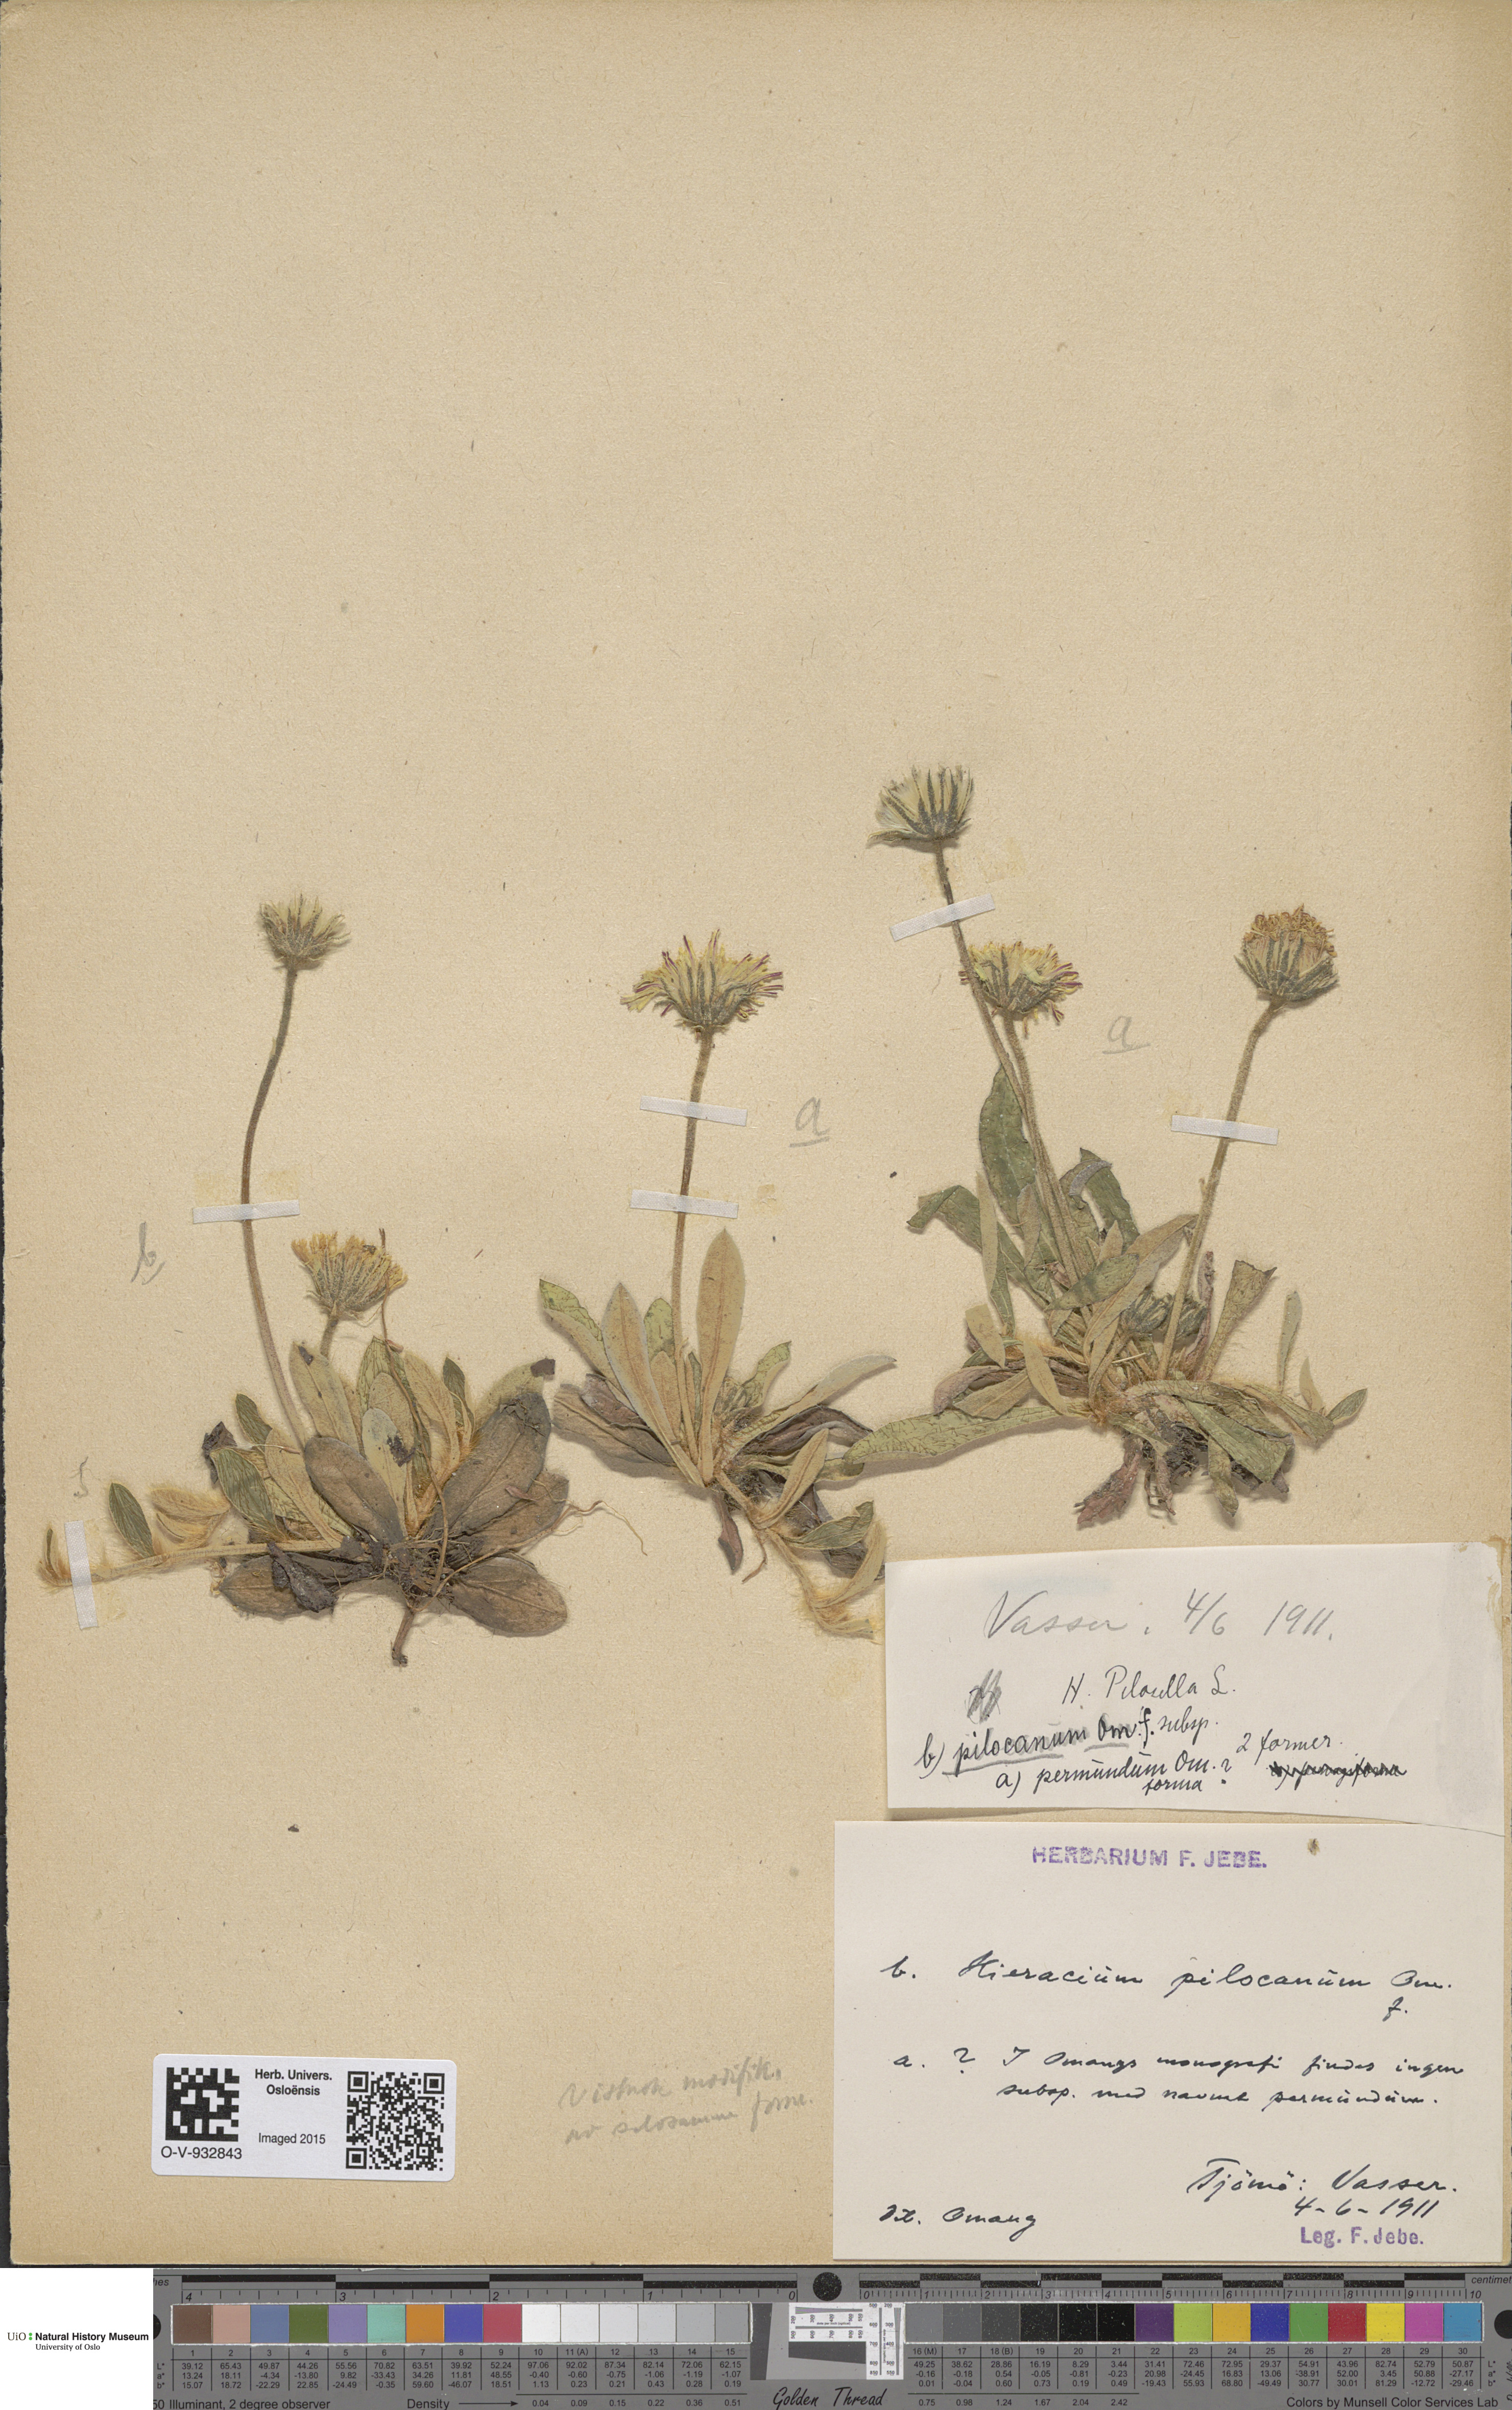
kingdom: Plantae
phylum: Tracheophyta
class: Magnoliopsida
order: Asterales
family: Asteraceae
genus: Pilosella
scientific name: Pilosella officinarum
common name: Mouse-ear hawkweed
